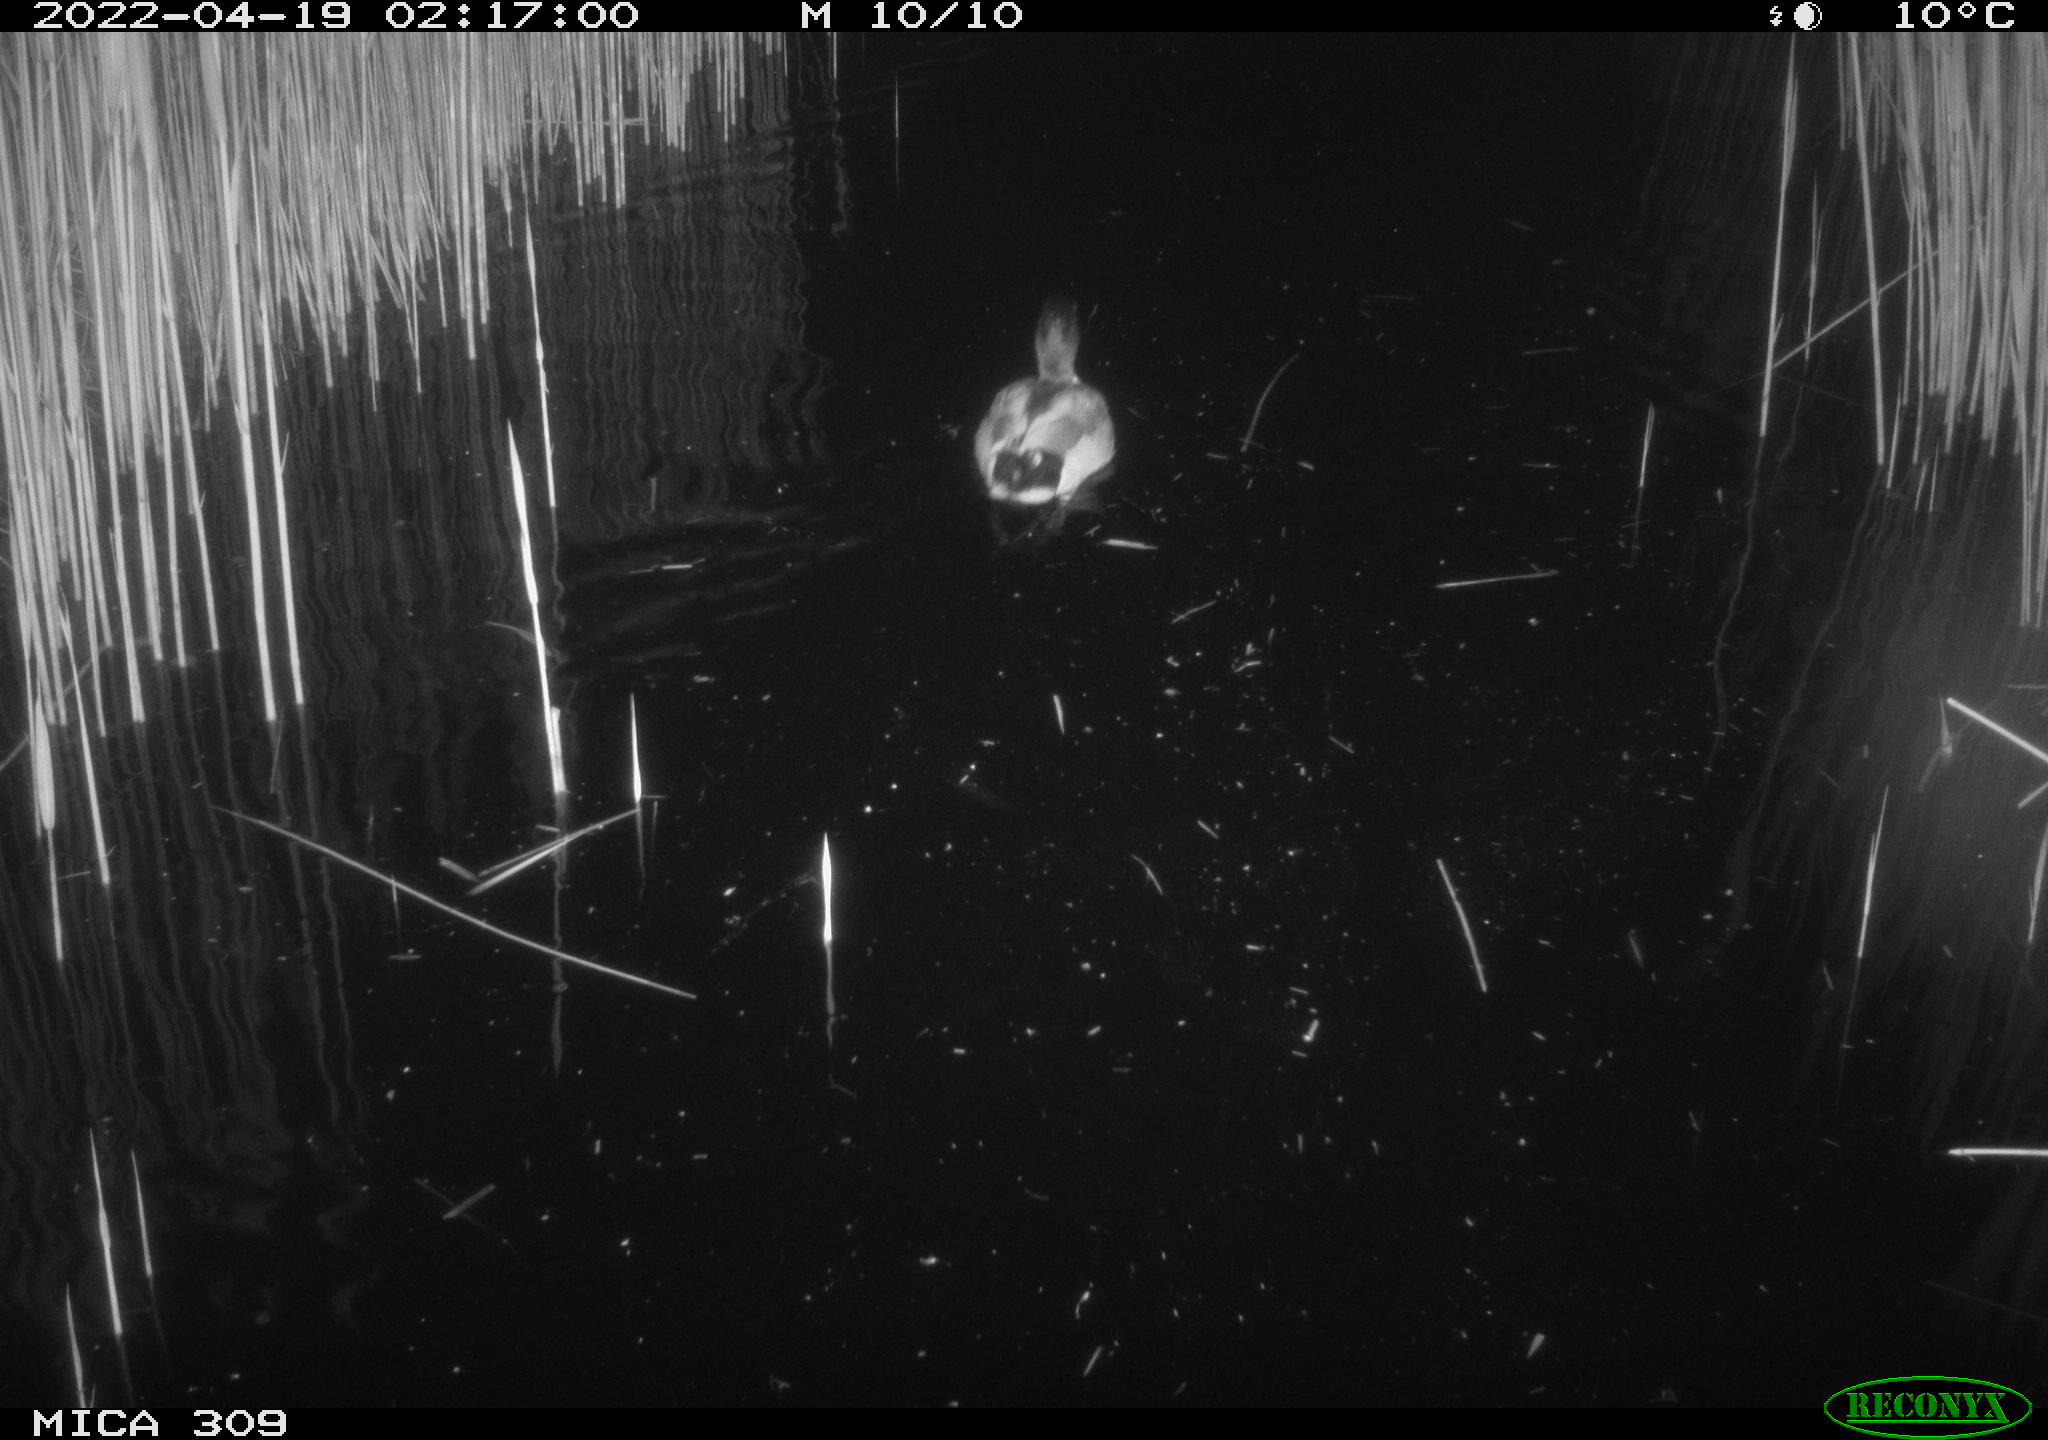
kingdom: Animalia
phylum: Chordata
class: Aves
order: Anseriformes
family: Anatidae
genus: Anas
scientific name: Anas platyrhynchos
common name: Mallard
